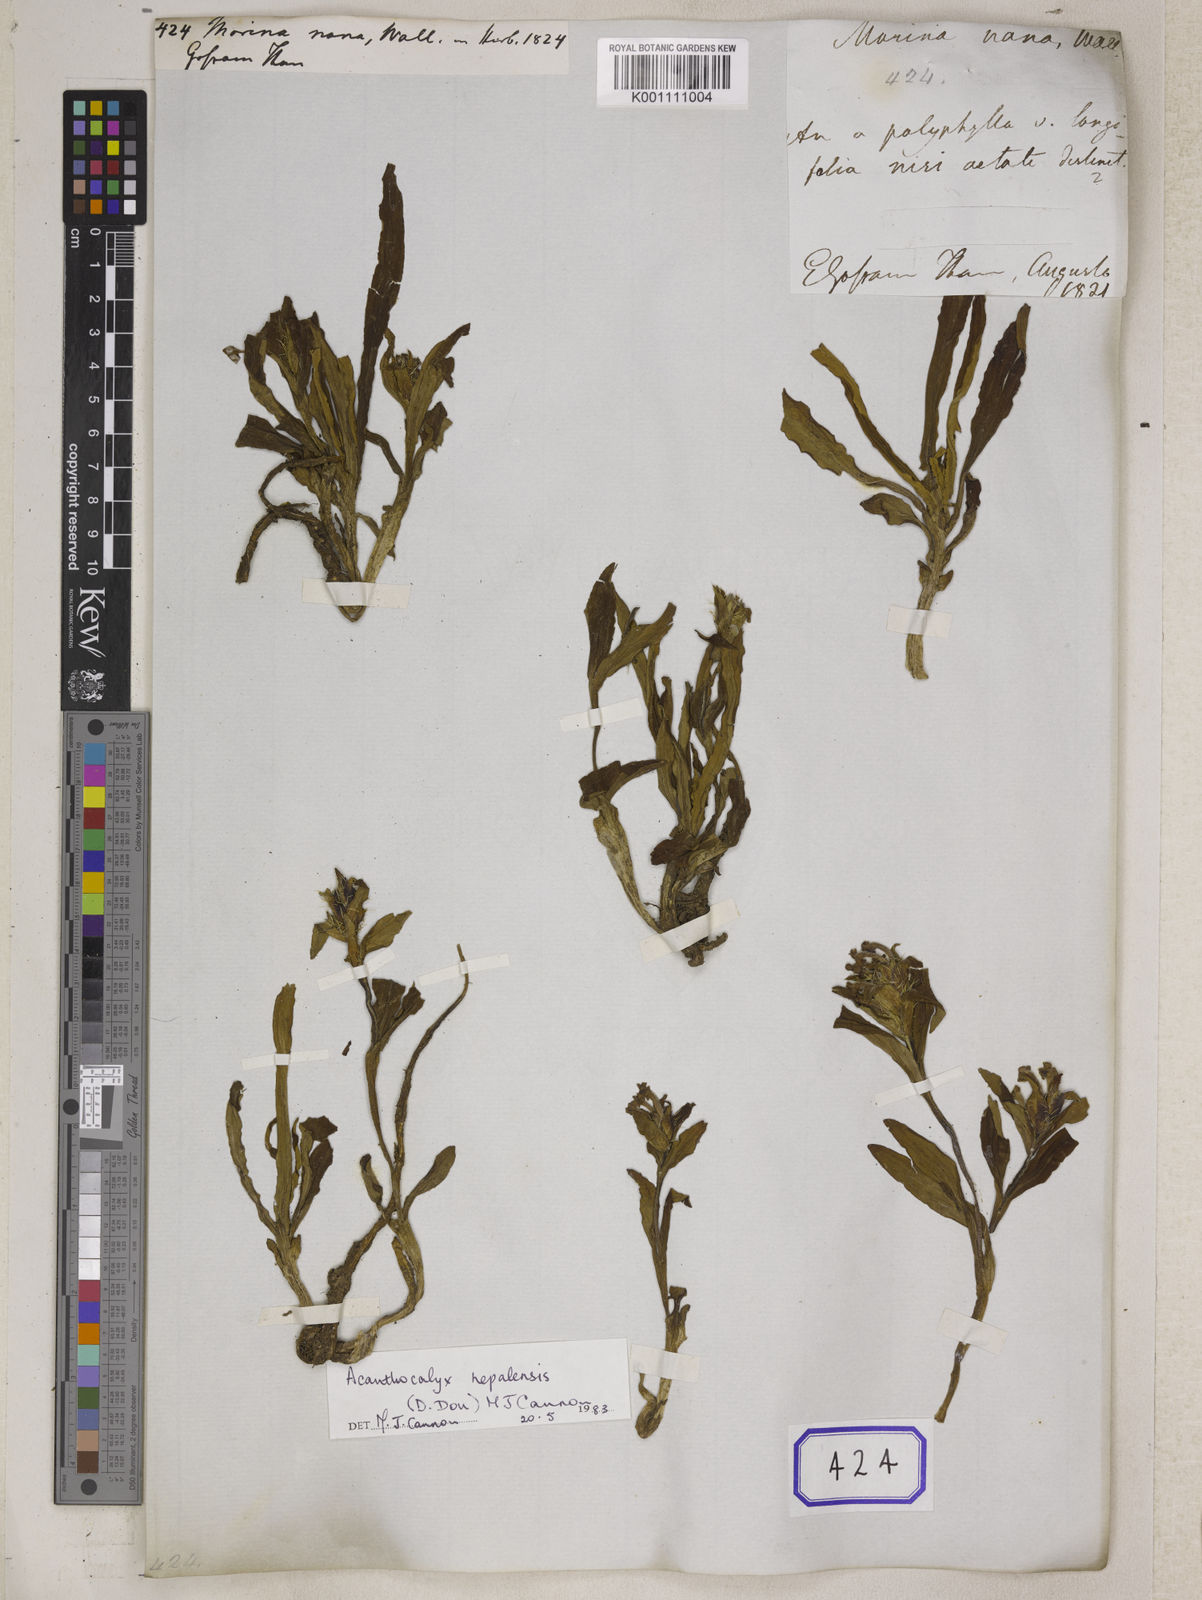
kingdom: Plantae
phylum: Tracheophyta
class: Magnoliopsida
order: Dipsacales
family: Caprifoliaceae
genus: Acanthocalyx
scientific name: Acanthocalyx nepalensis
